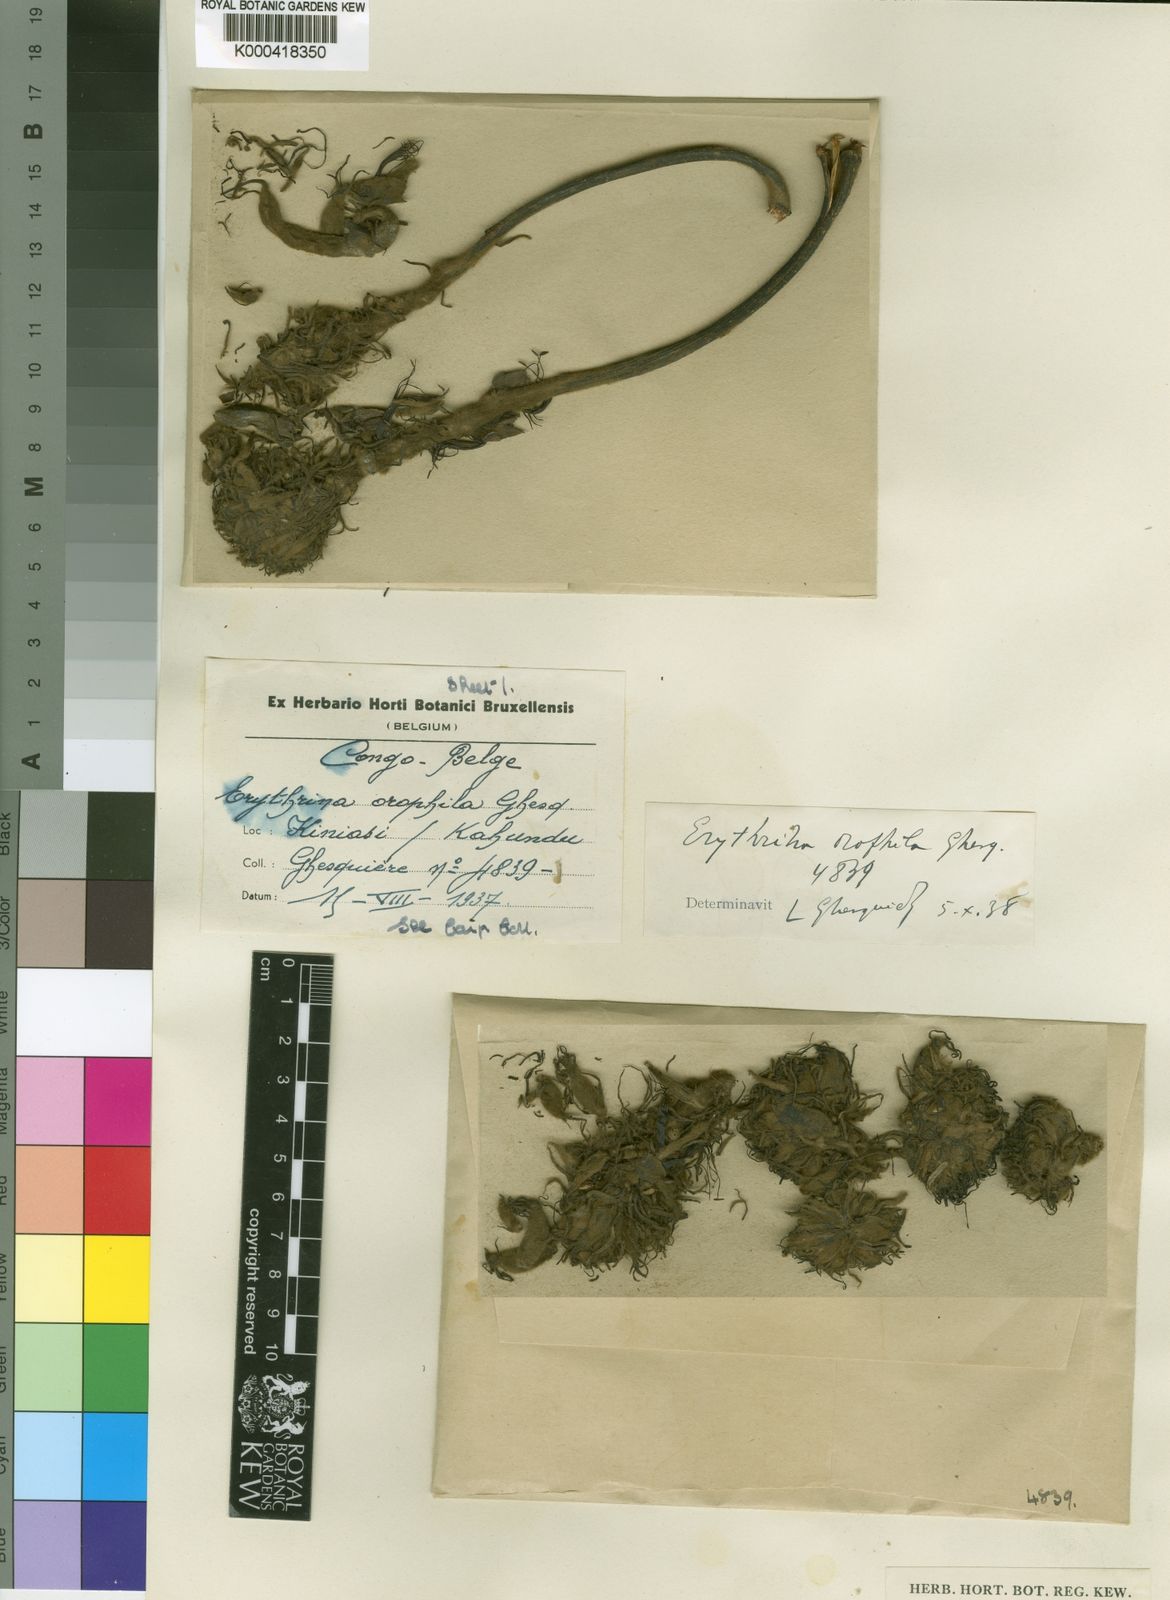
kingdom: Plantae
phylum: Tracheophyta
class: Magnoliopsida
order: Fabales
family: Fabaceae
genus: Erythrina
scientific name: Erythrina orophila
